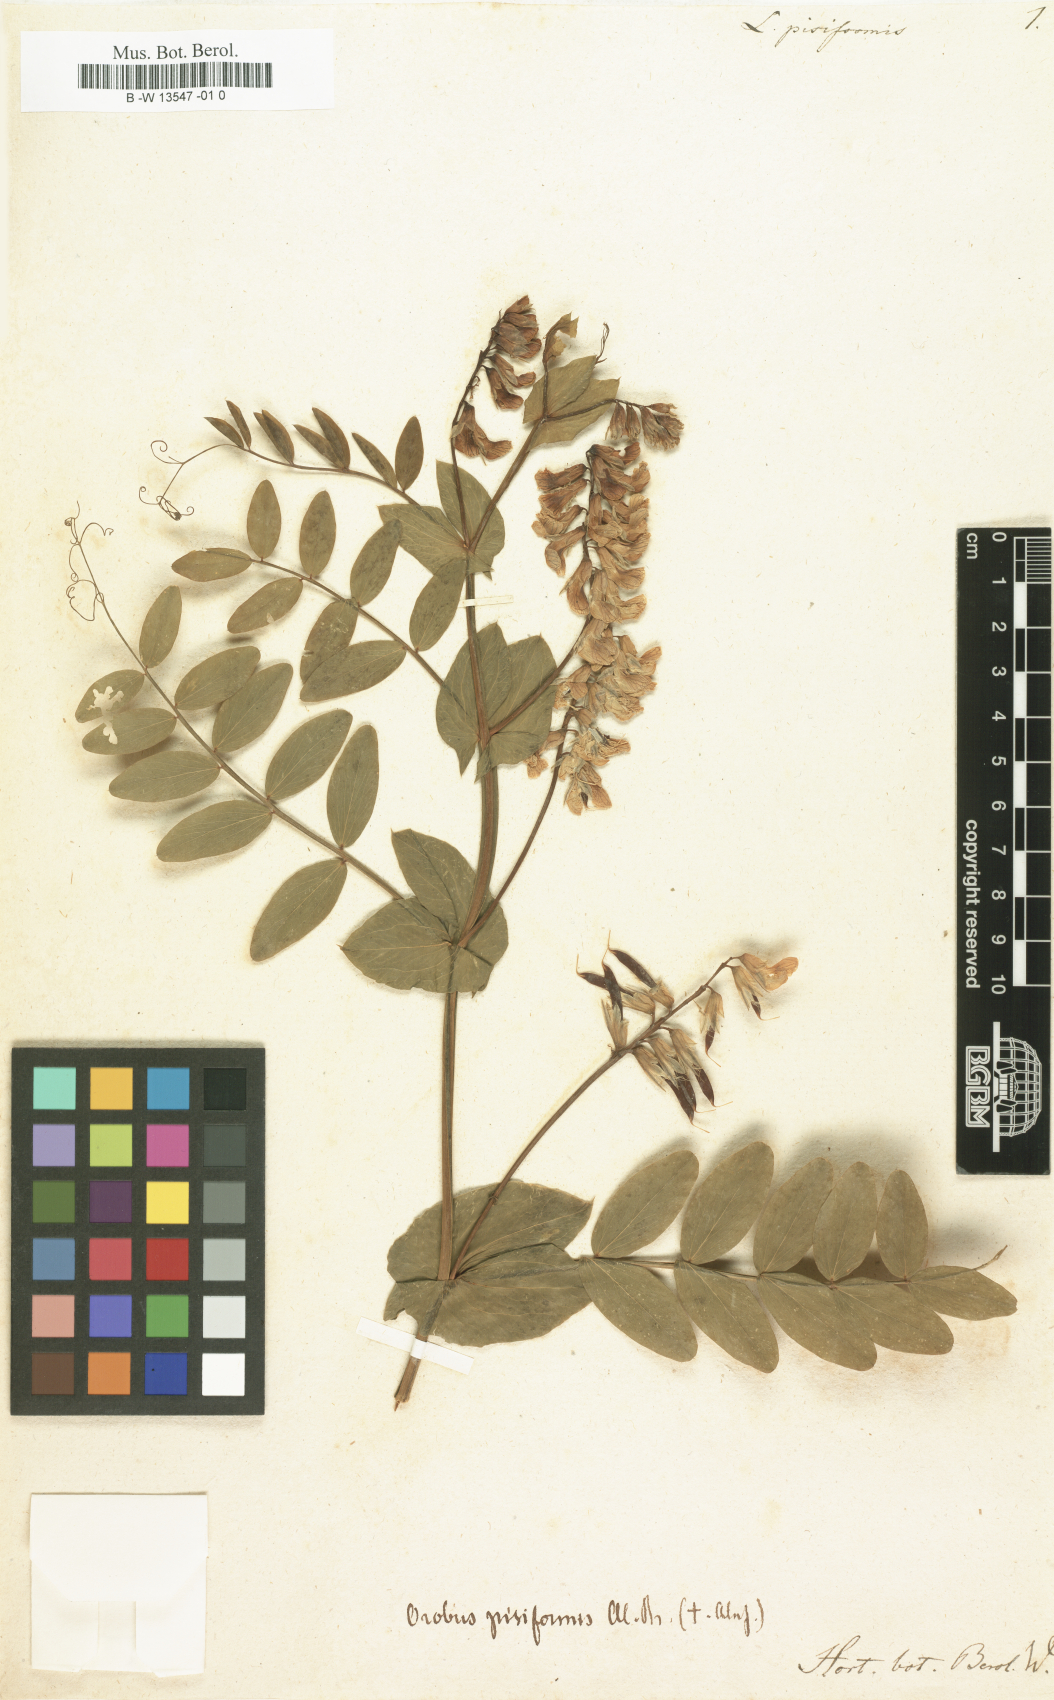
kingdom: Plantae
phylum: Tracheophyta
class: Magnoliopsida
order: Fabales
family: Fabaceae
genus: Lathyrus
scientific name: Lathyrus pisiformis
